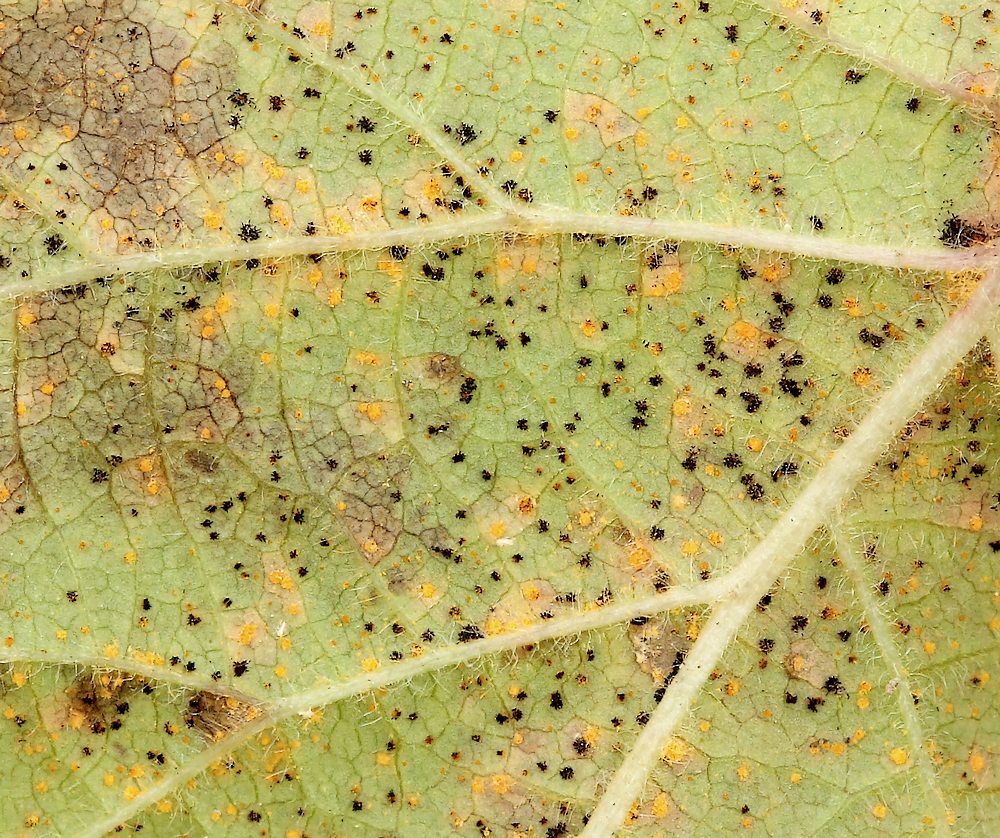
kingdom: Fungi
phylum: Basidiomycota
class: Pucciniomycetes
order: Pucciniales
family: Phragmidiaceae
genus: Phragmidium
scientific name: Phragmidium bulbosum
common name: brombær-flercellerust
